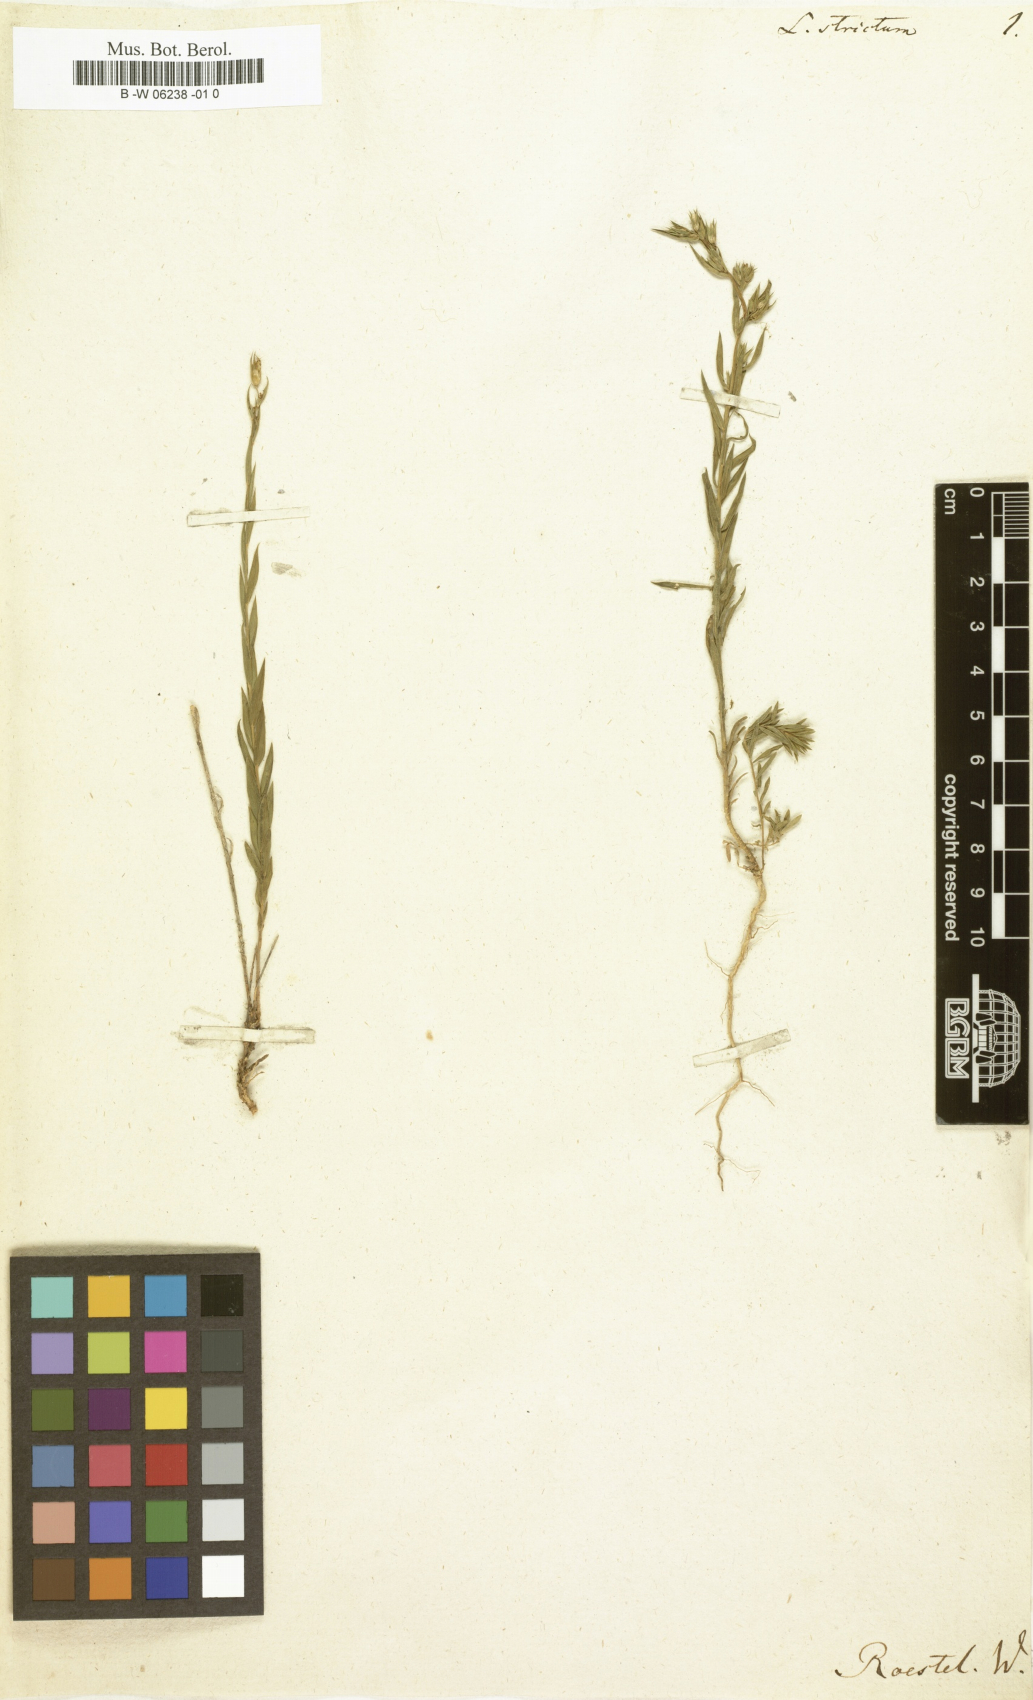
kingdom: Plantae
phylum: Tracheophyta
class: Magnoliopsida
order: Malpighiales
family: Linaceae
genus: Linum
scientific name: Linum strictum
